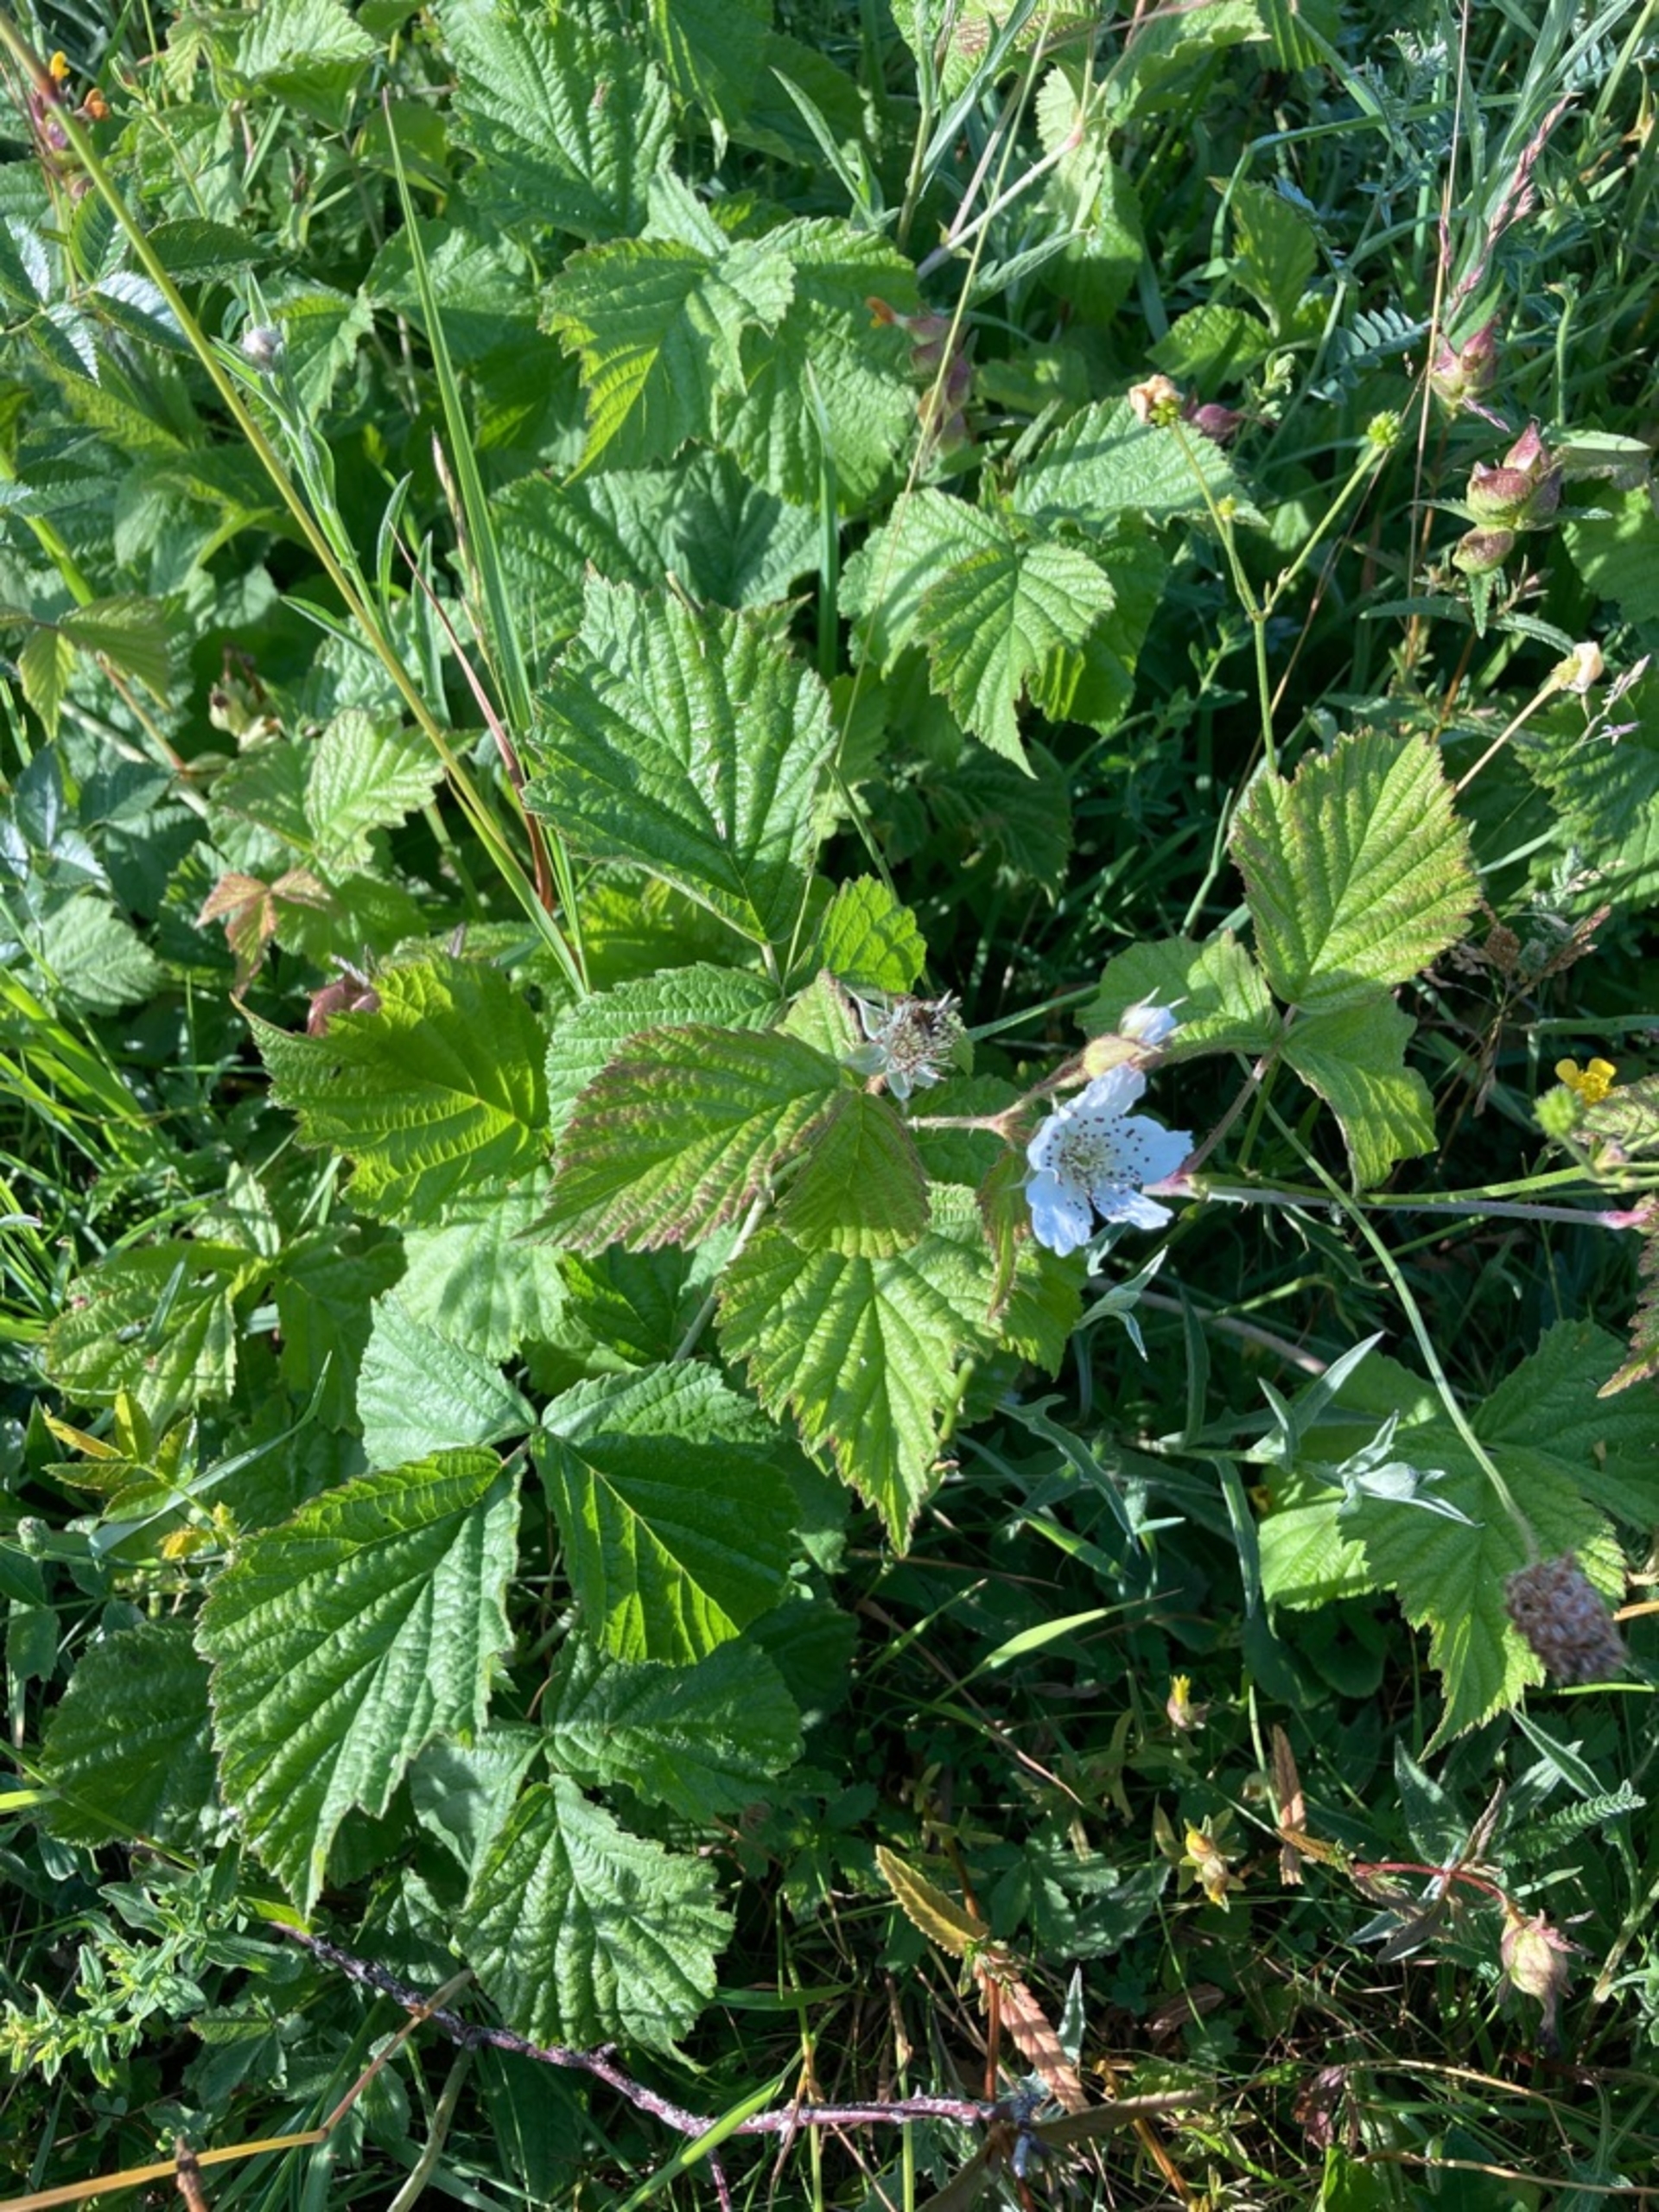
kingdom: Plantae
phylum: Tracheophyta
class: Magnoliopsida
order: Rosales
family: Rosaceae
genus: Rubus
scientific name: Rubus caesius
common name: Korbær
